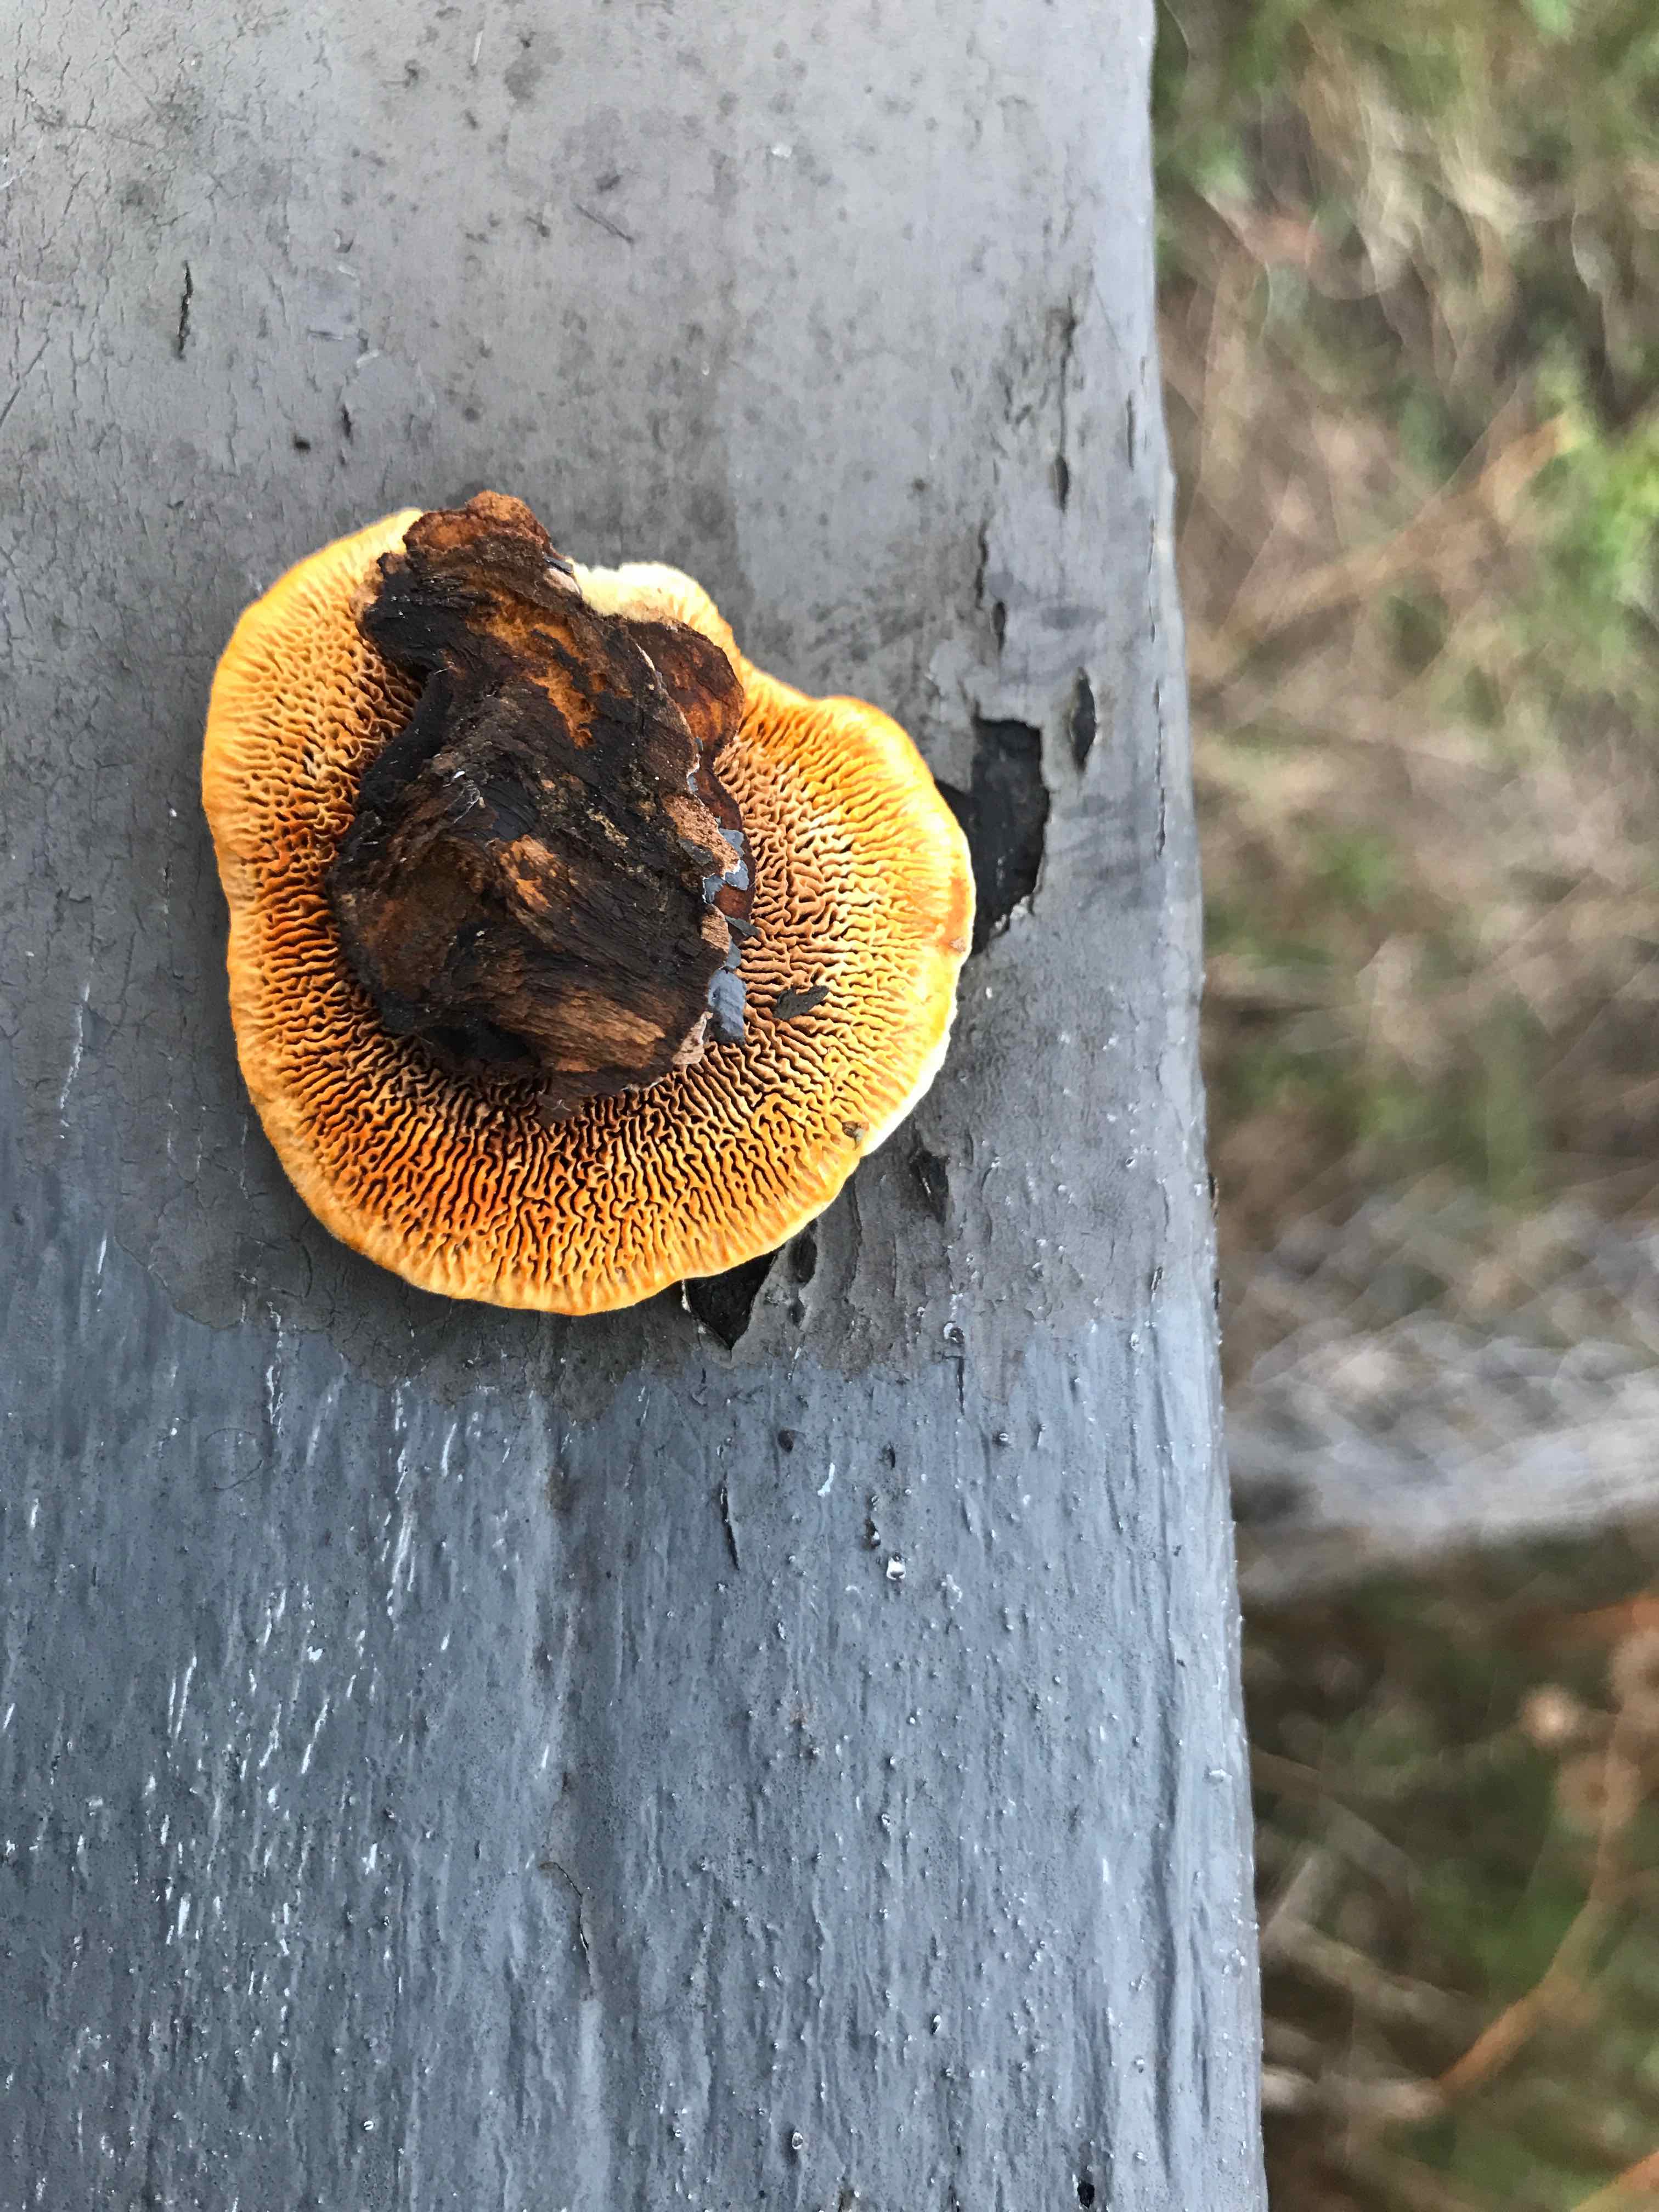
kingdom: Fungi
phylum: Basidiomycota
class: Agaricomycetes
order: Gloeophyllales
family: Gloeophyllaceae
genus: Gloeophyllum
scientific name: Gloeophyllum sepiarium
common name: fyrre-korkhat
